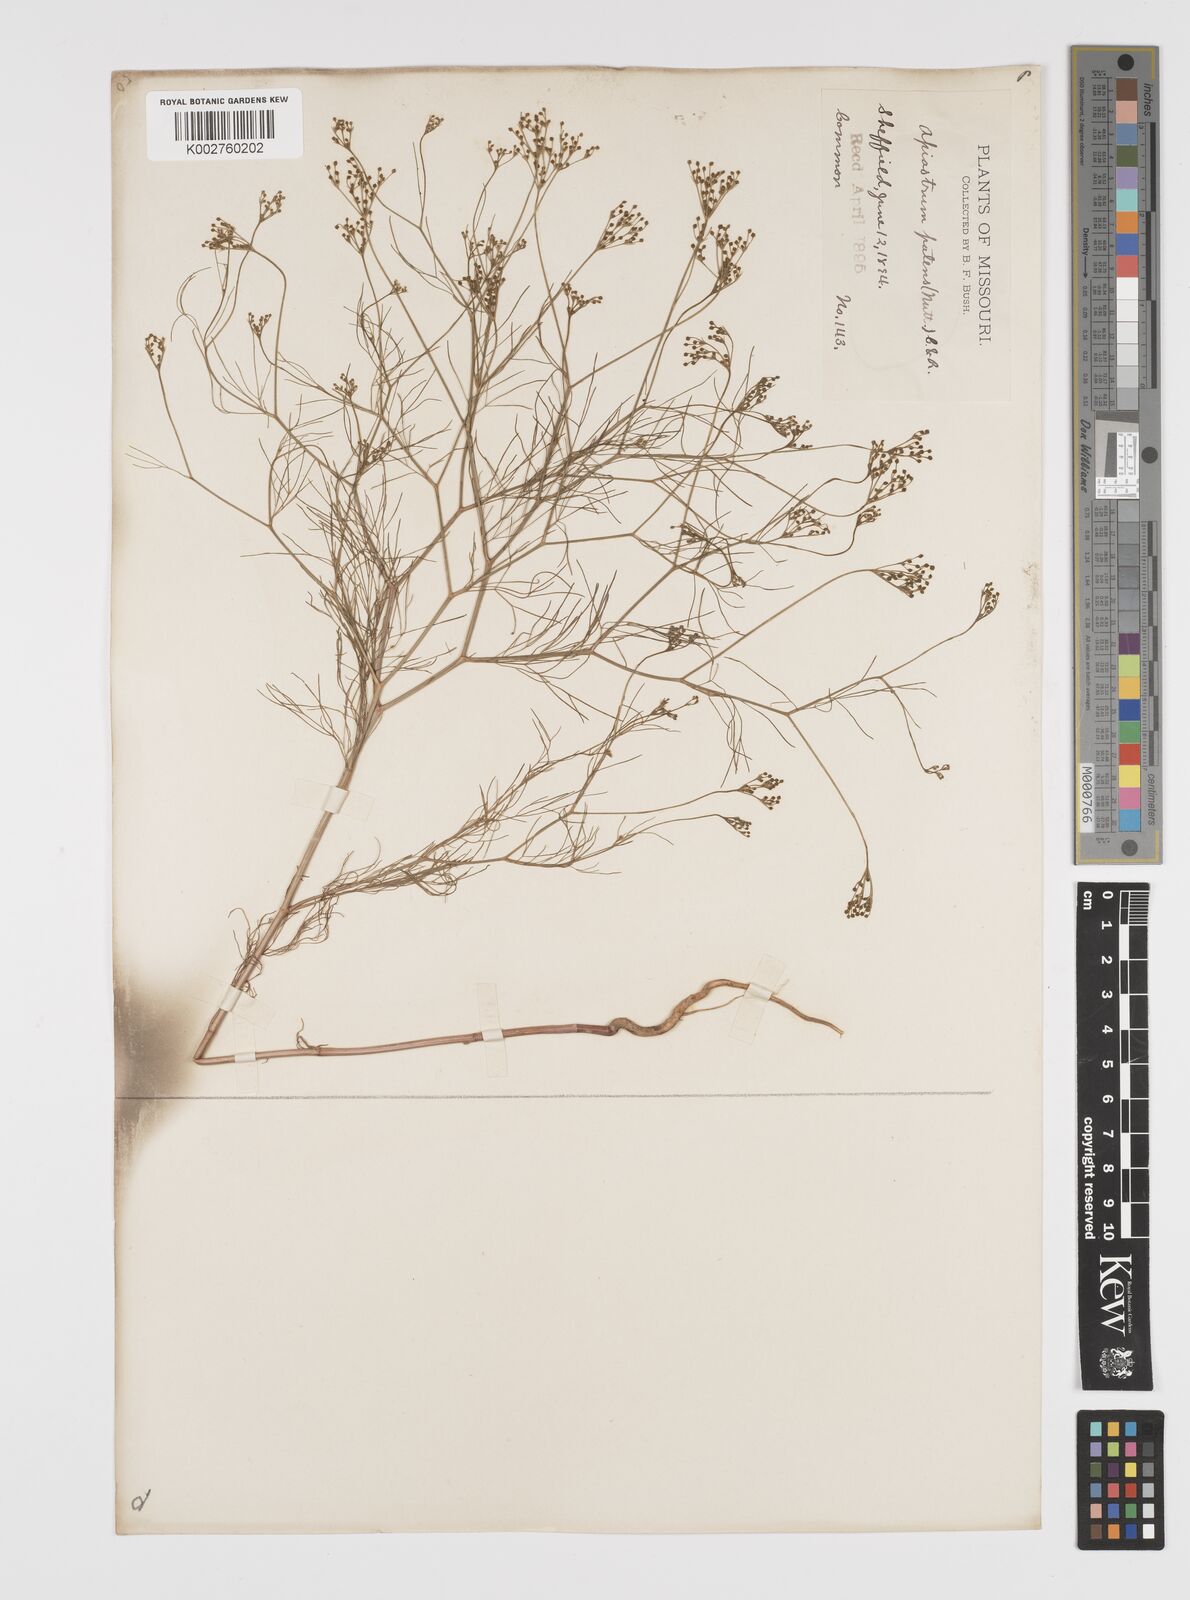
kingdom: Plantae
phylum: Tracheophyta
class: Magnoliopsida
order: Apiales
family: Apiaceae
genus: Spermolepis
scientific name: Spermolepis inermis
